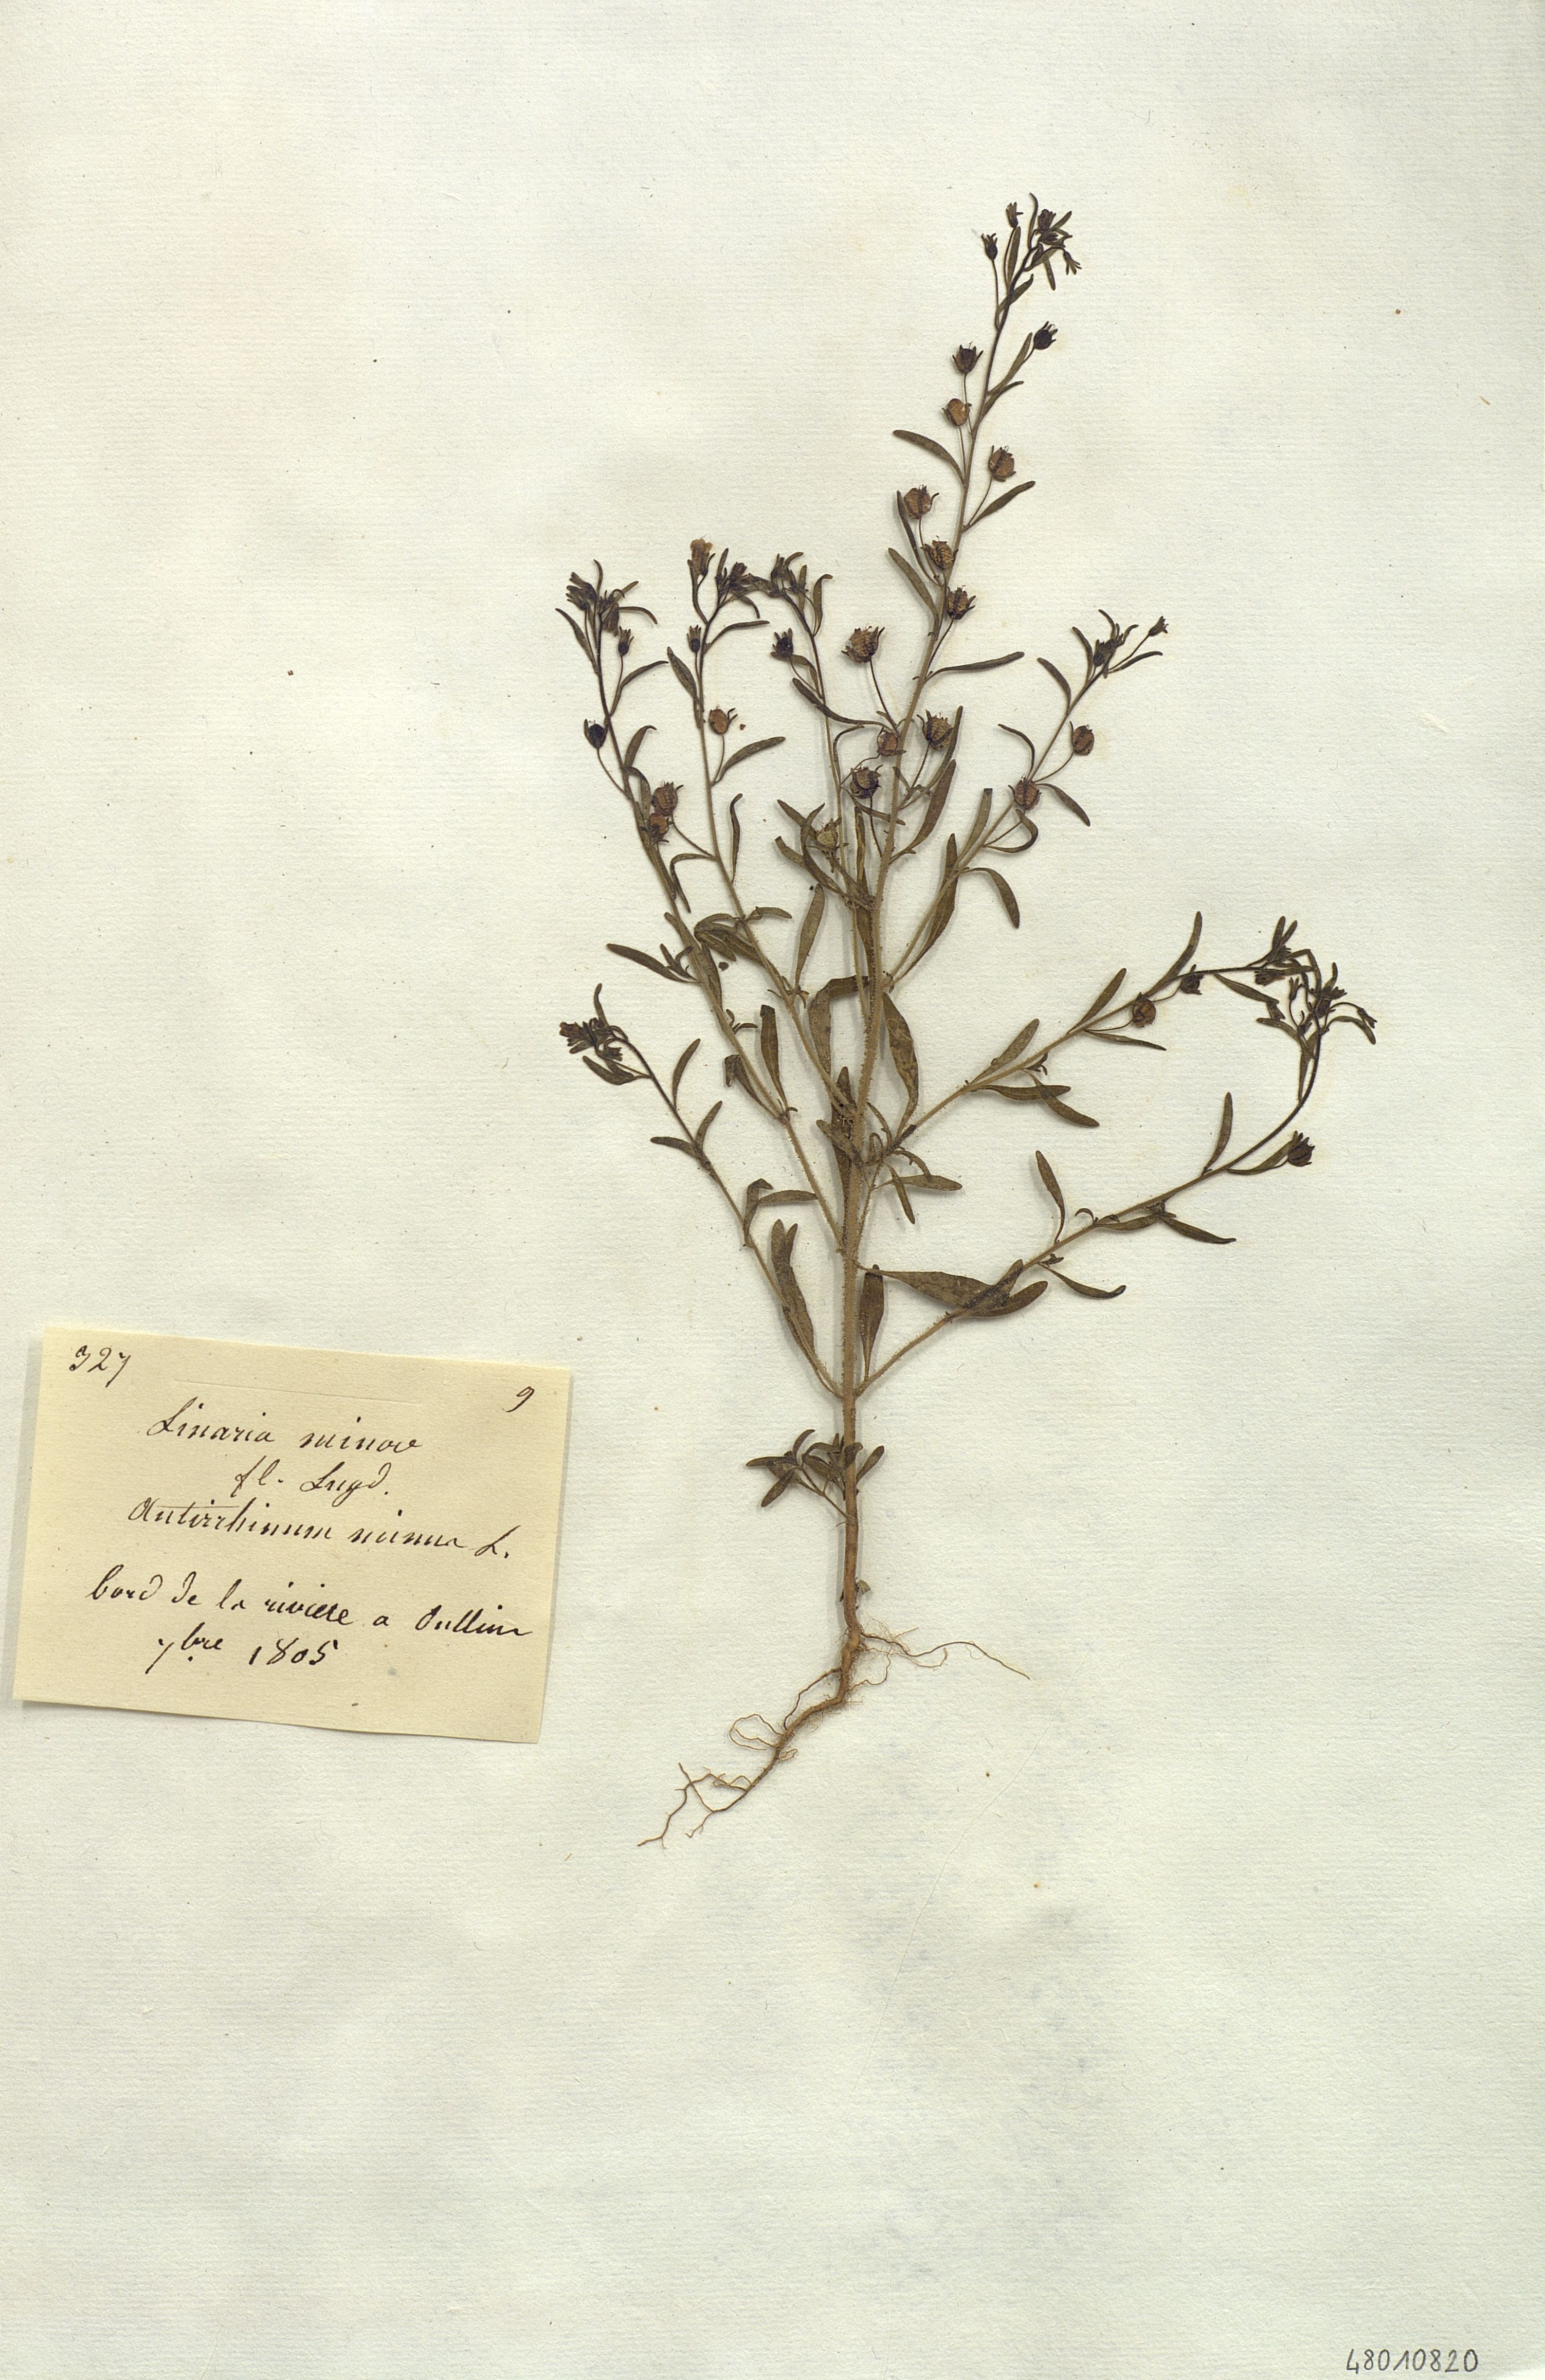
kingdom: Plantae
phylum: Tracheophyta
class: Magnoliopsida
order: Lamiales
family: Plantaginaceae
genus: Chaenorhinum
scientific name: Chaenorhinum minus
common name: Dwarf snapdragon
